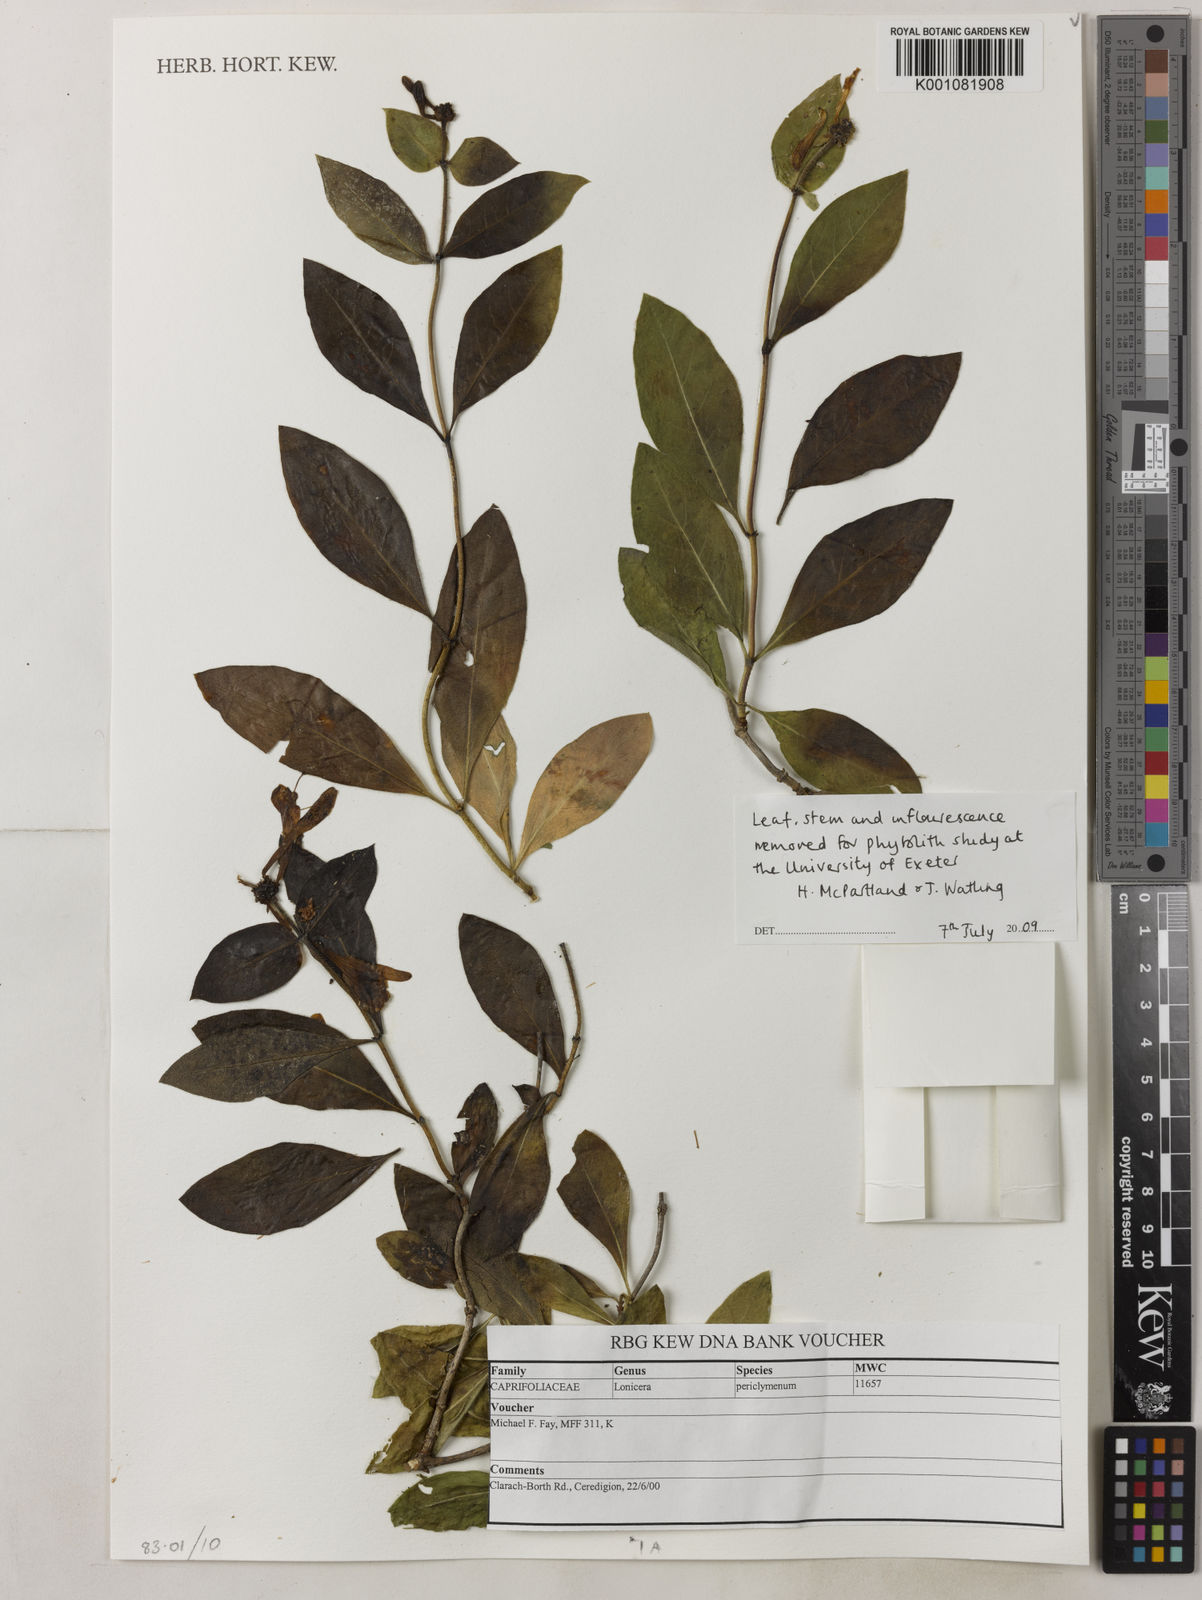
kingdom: Plantae
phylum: Tracheophyta
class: Magnoliopsida
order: Dipsacales
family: Caprifoliaceae
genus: Lonicera
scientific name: Lonicera periclymenum
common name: European honeysuckle
